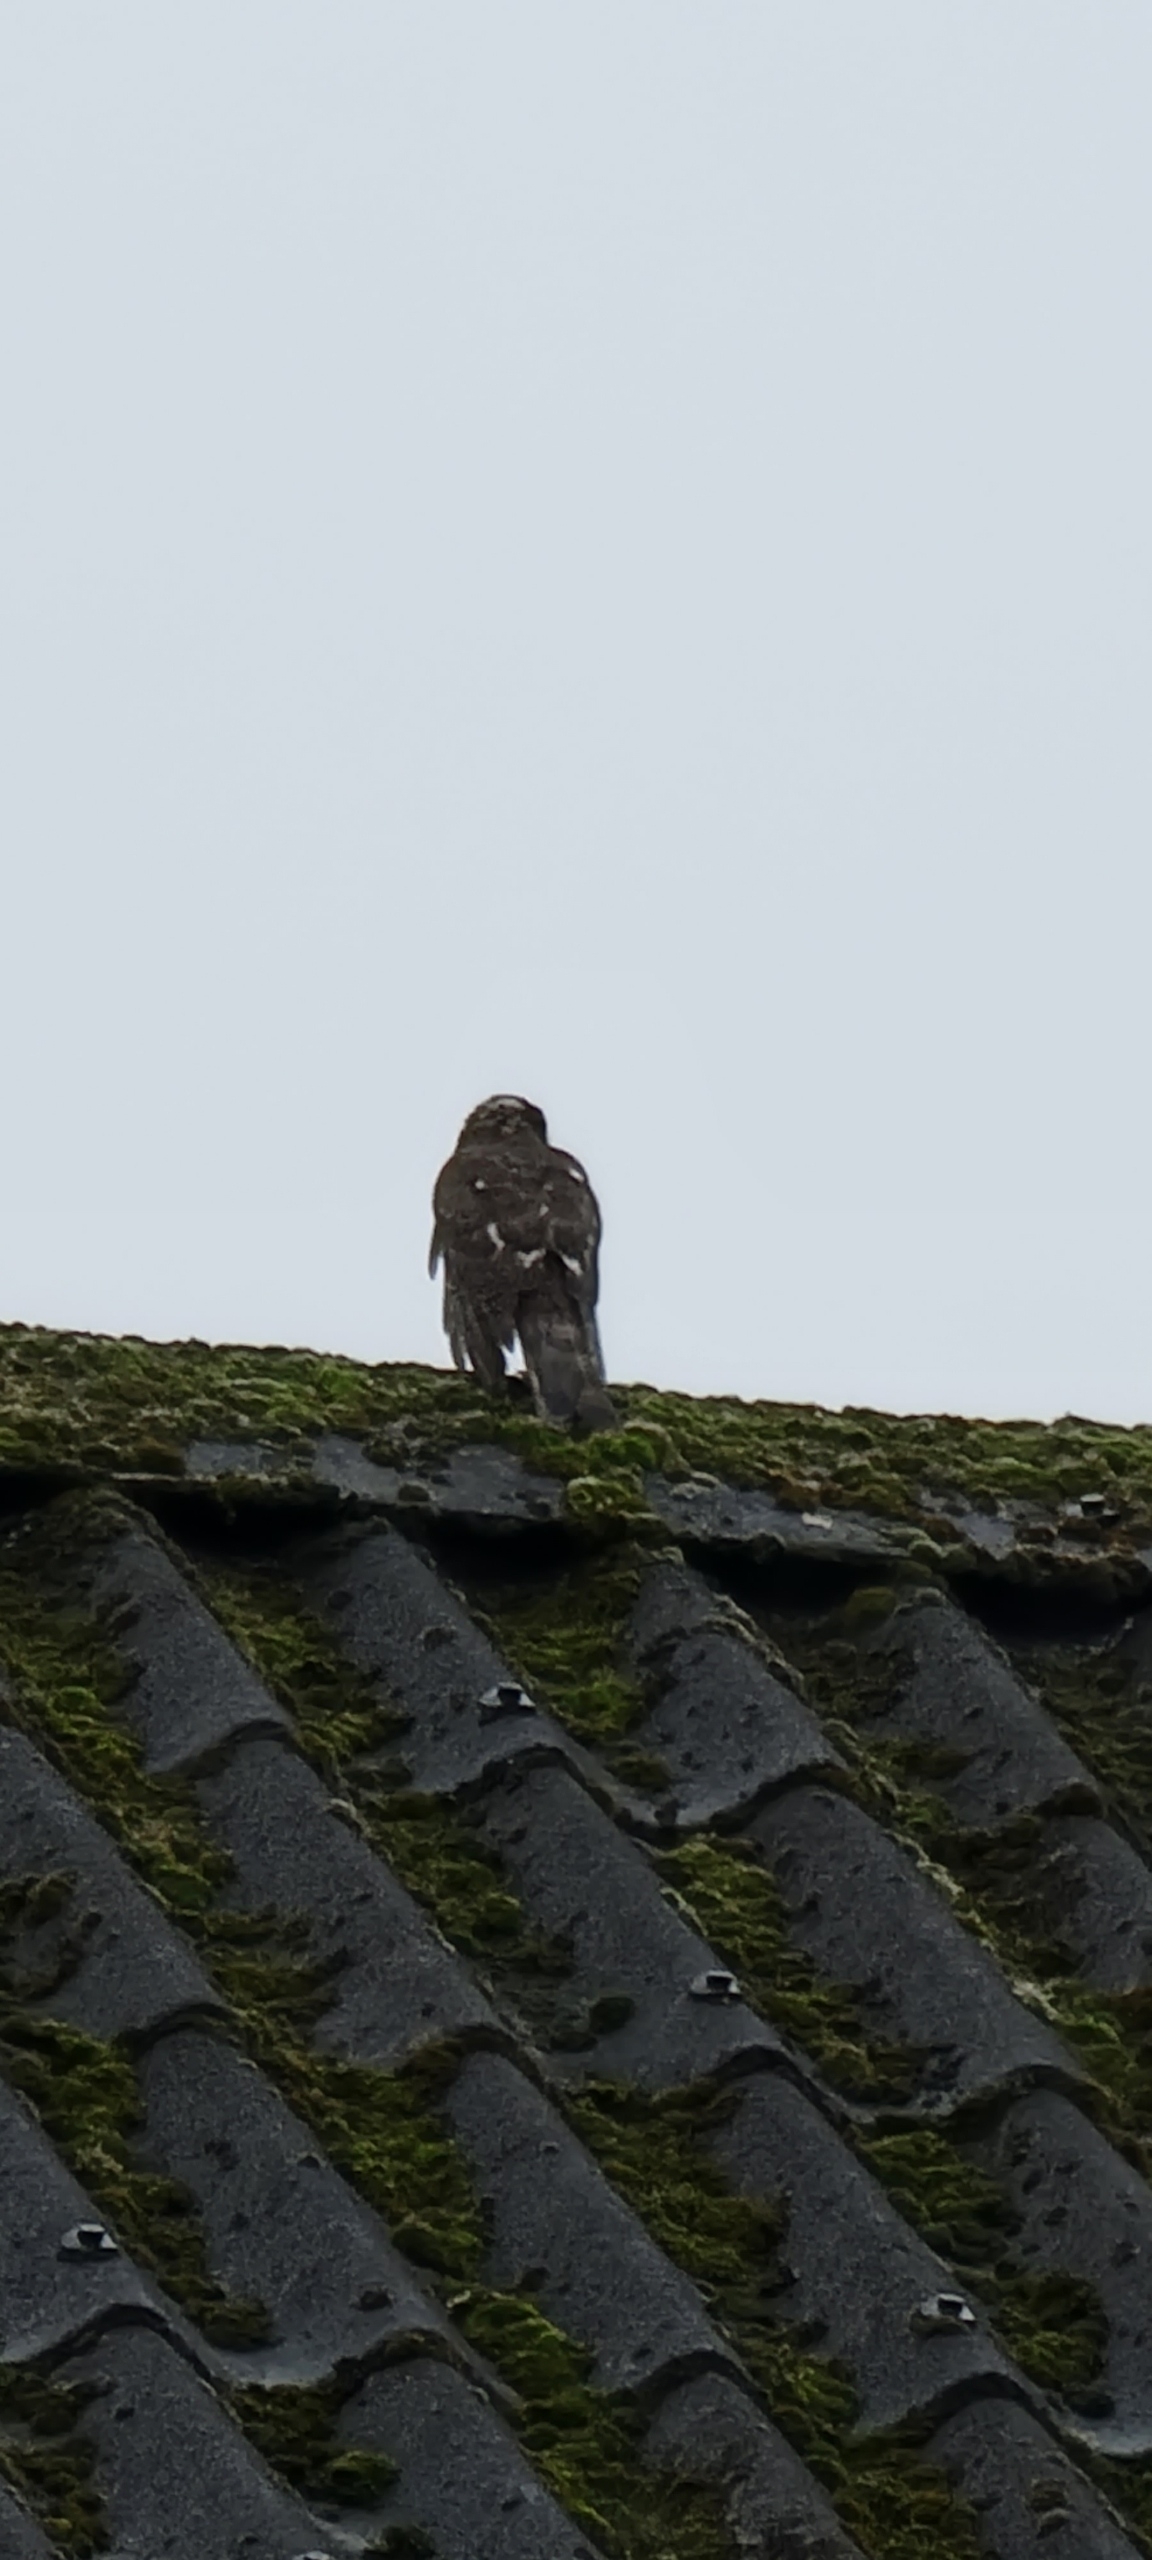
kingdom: Animalia
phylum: Chordata
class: Aves
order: Accipitriformes
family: Accipitridae
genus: Accipiter
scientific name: Accipiter nisus
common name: Spurvehøg
